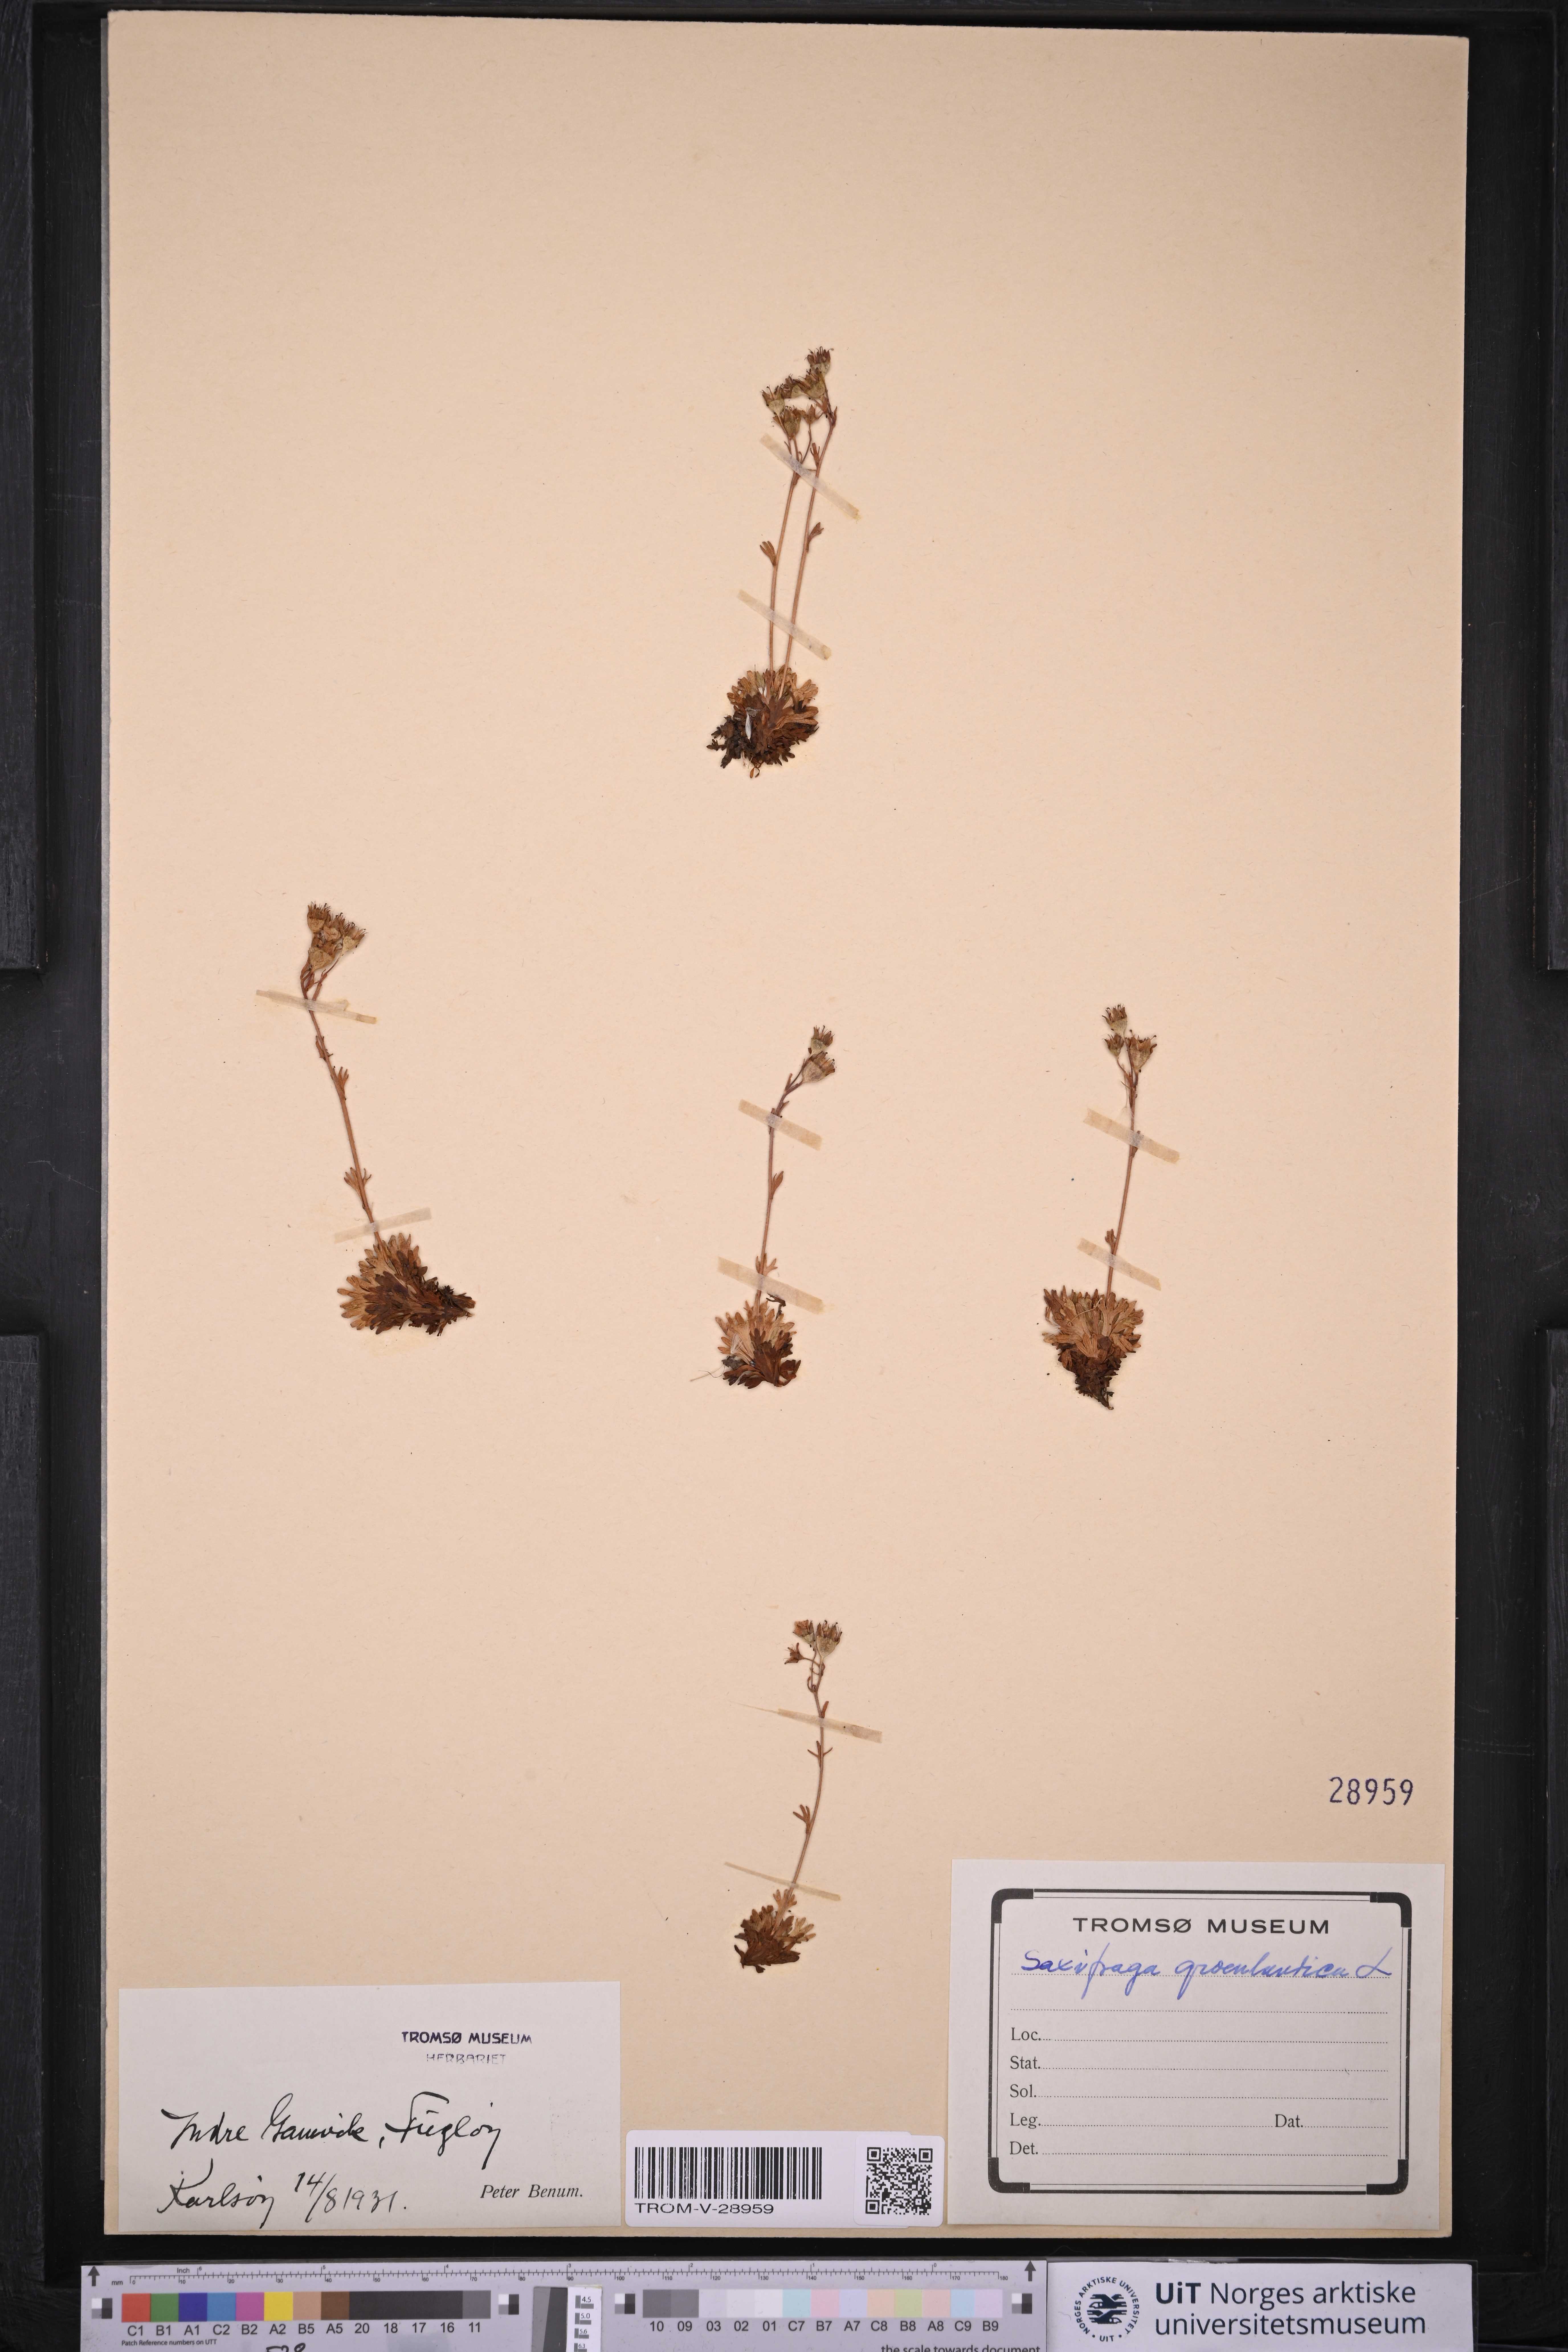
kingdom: Plantae
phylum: Tracheophyta
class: Magnoliopsida
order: Saxifragales
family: Saxifragaceae
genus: Saxifraga
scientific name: Saxifraga cespitosa
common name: Tufted saxifrage
